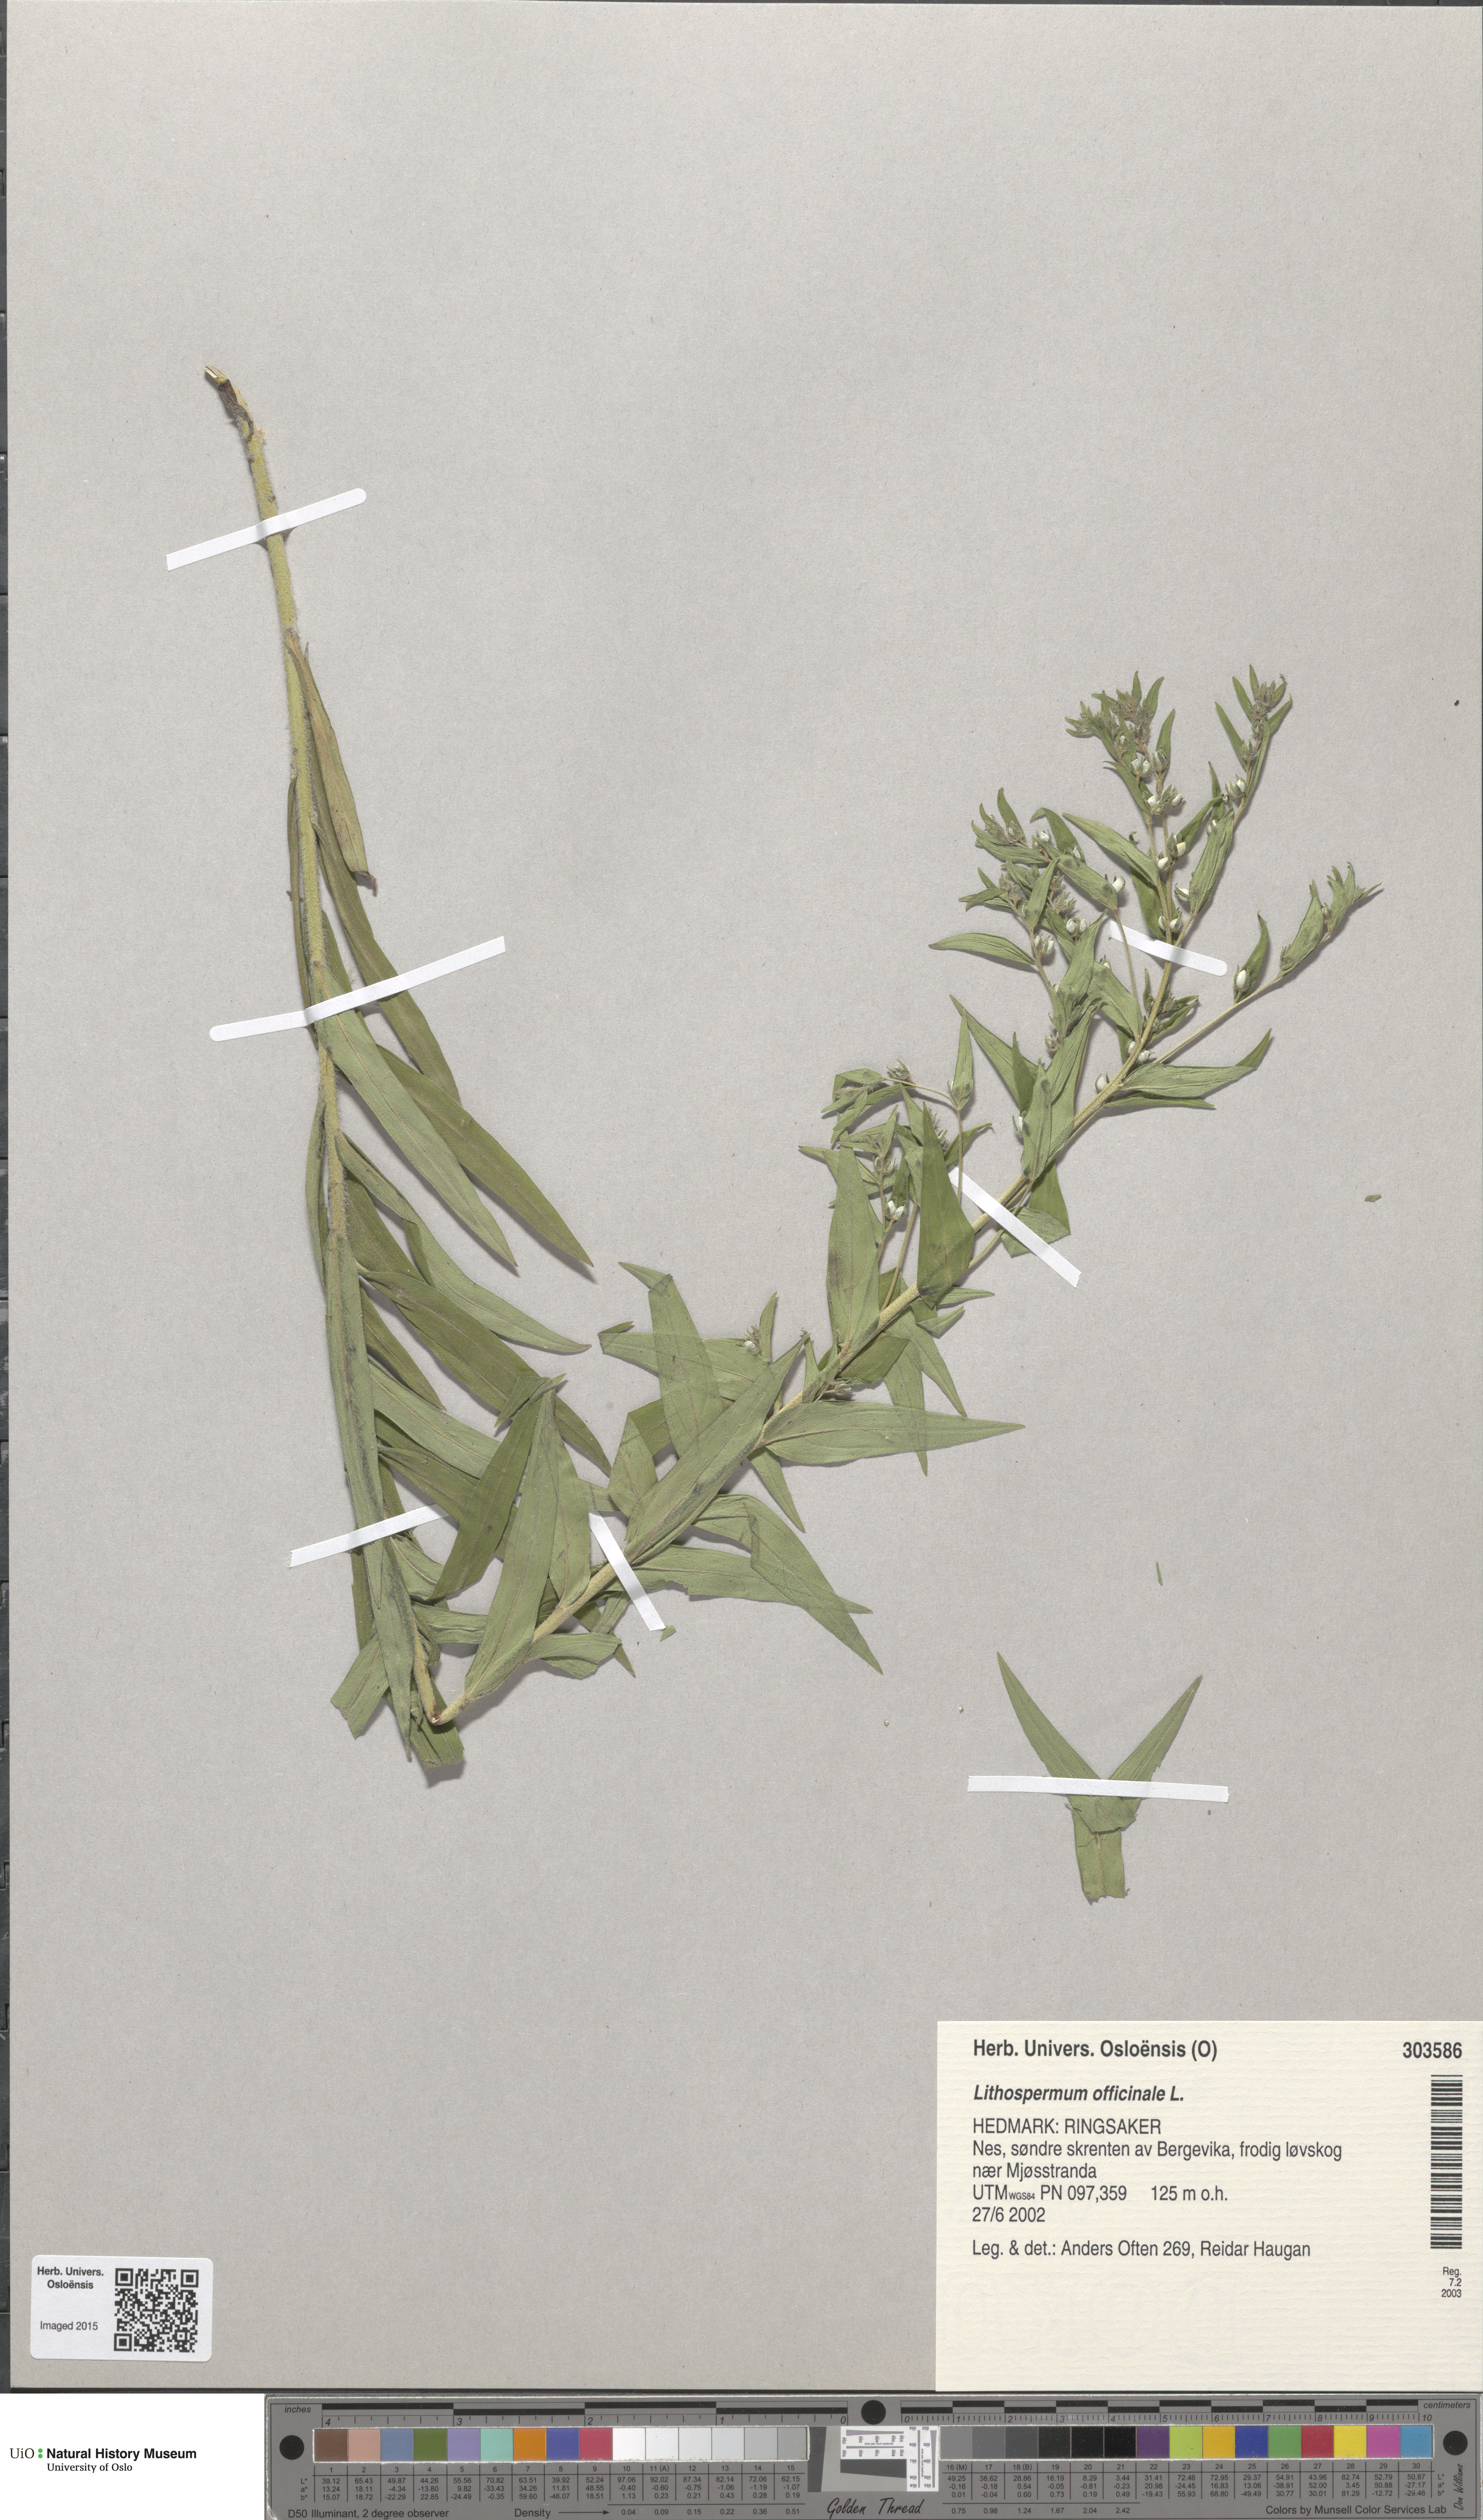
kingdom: Plantae
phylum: Tracheophyta
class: Magnoliopsida
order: Boraginales
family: Boraginaceae
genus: Lithospermum
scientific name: Lithospermum officinale
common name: Common gromwell
